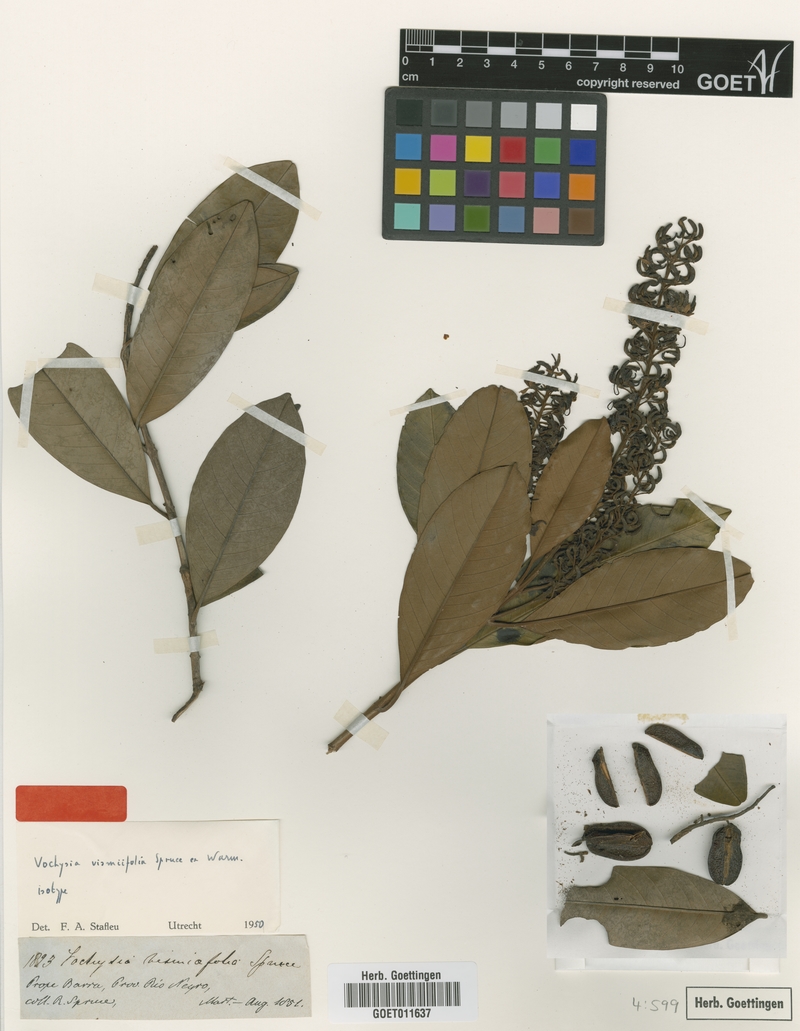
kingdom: Plantae
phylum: Tracheophyta
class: Magnoliopsida
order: Myrtales
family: Vochysiaceae
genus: Vochysia
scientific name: Vochysia vismiifolia
